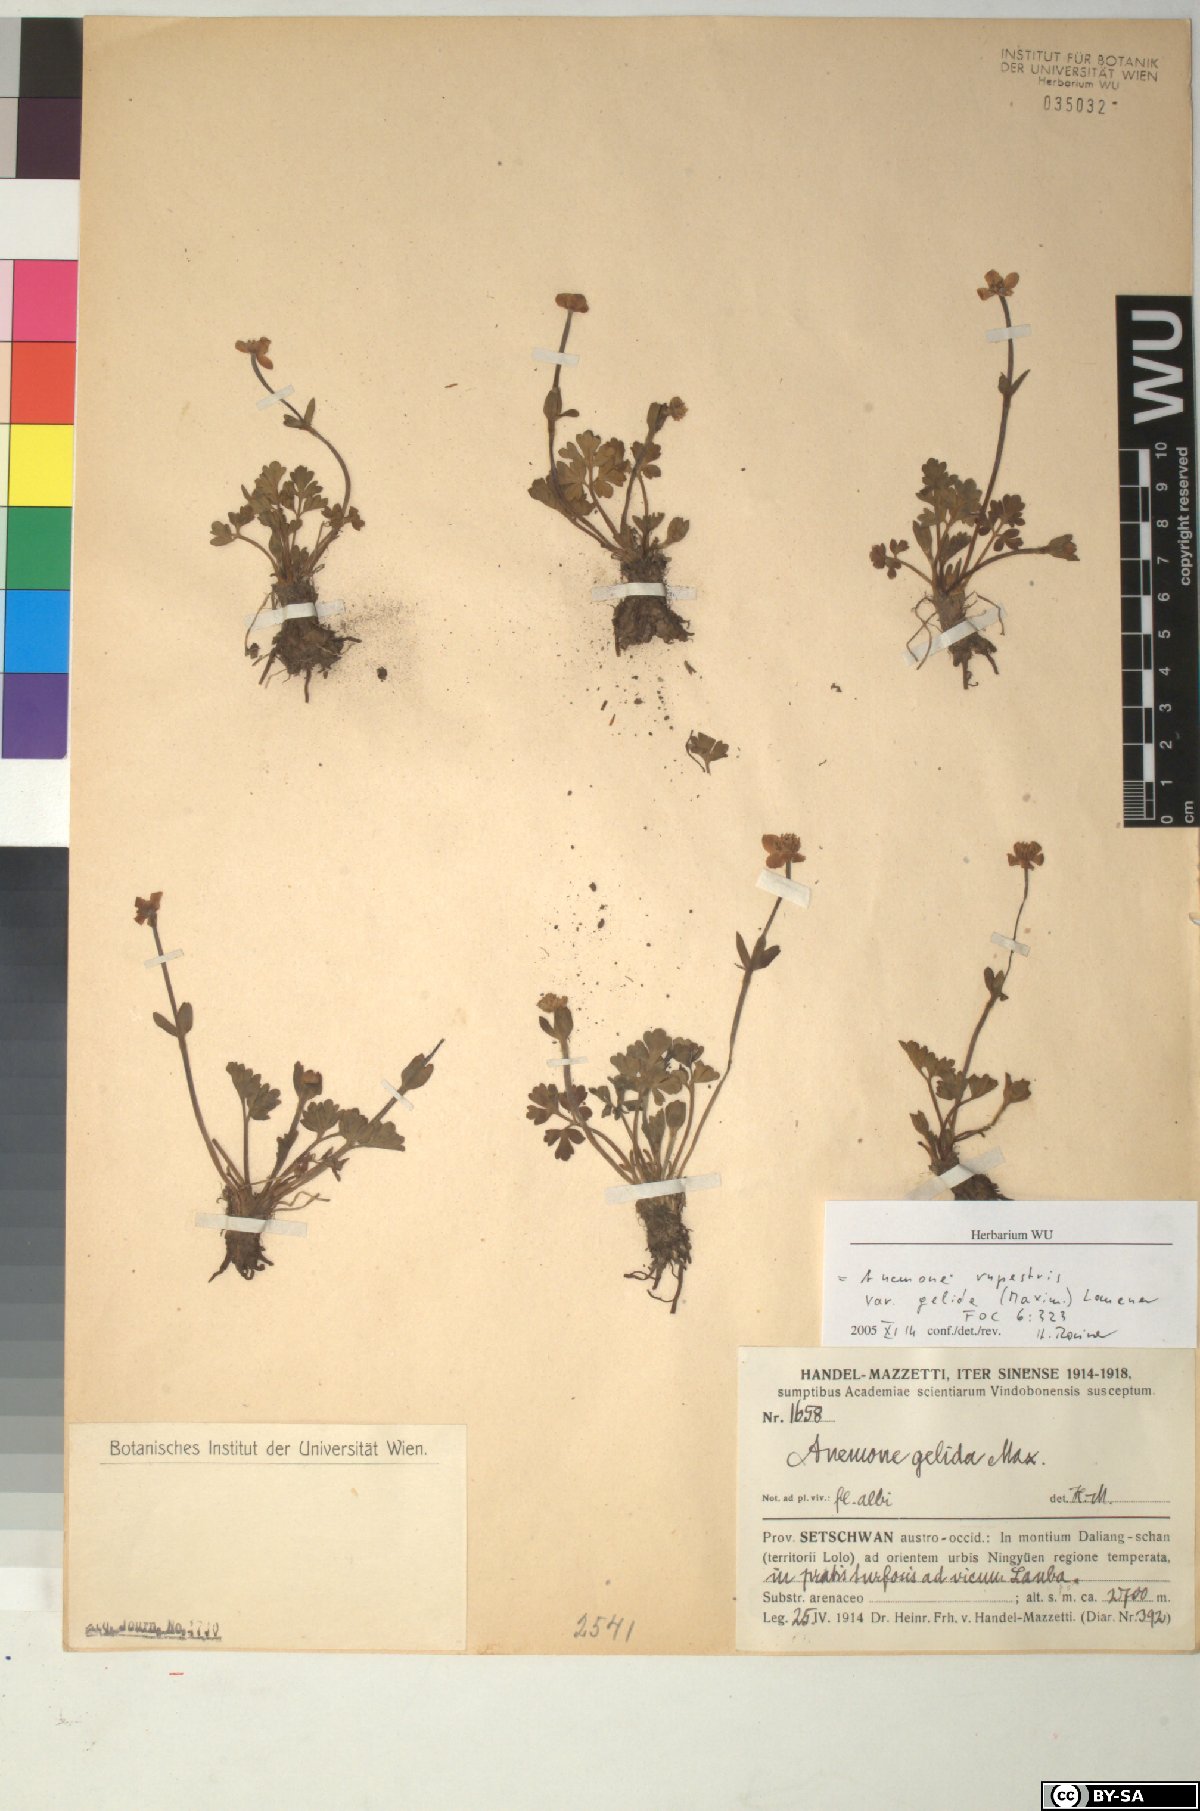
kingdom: Plantae
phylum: Tracheophyta
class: Magnoliopsida
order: Ranunculales
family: Ranunculaceae
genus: Anemonastrum
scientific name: Anemonastrum rupestre
